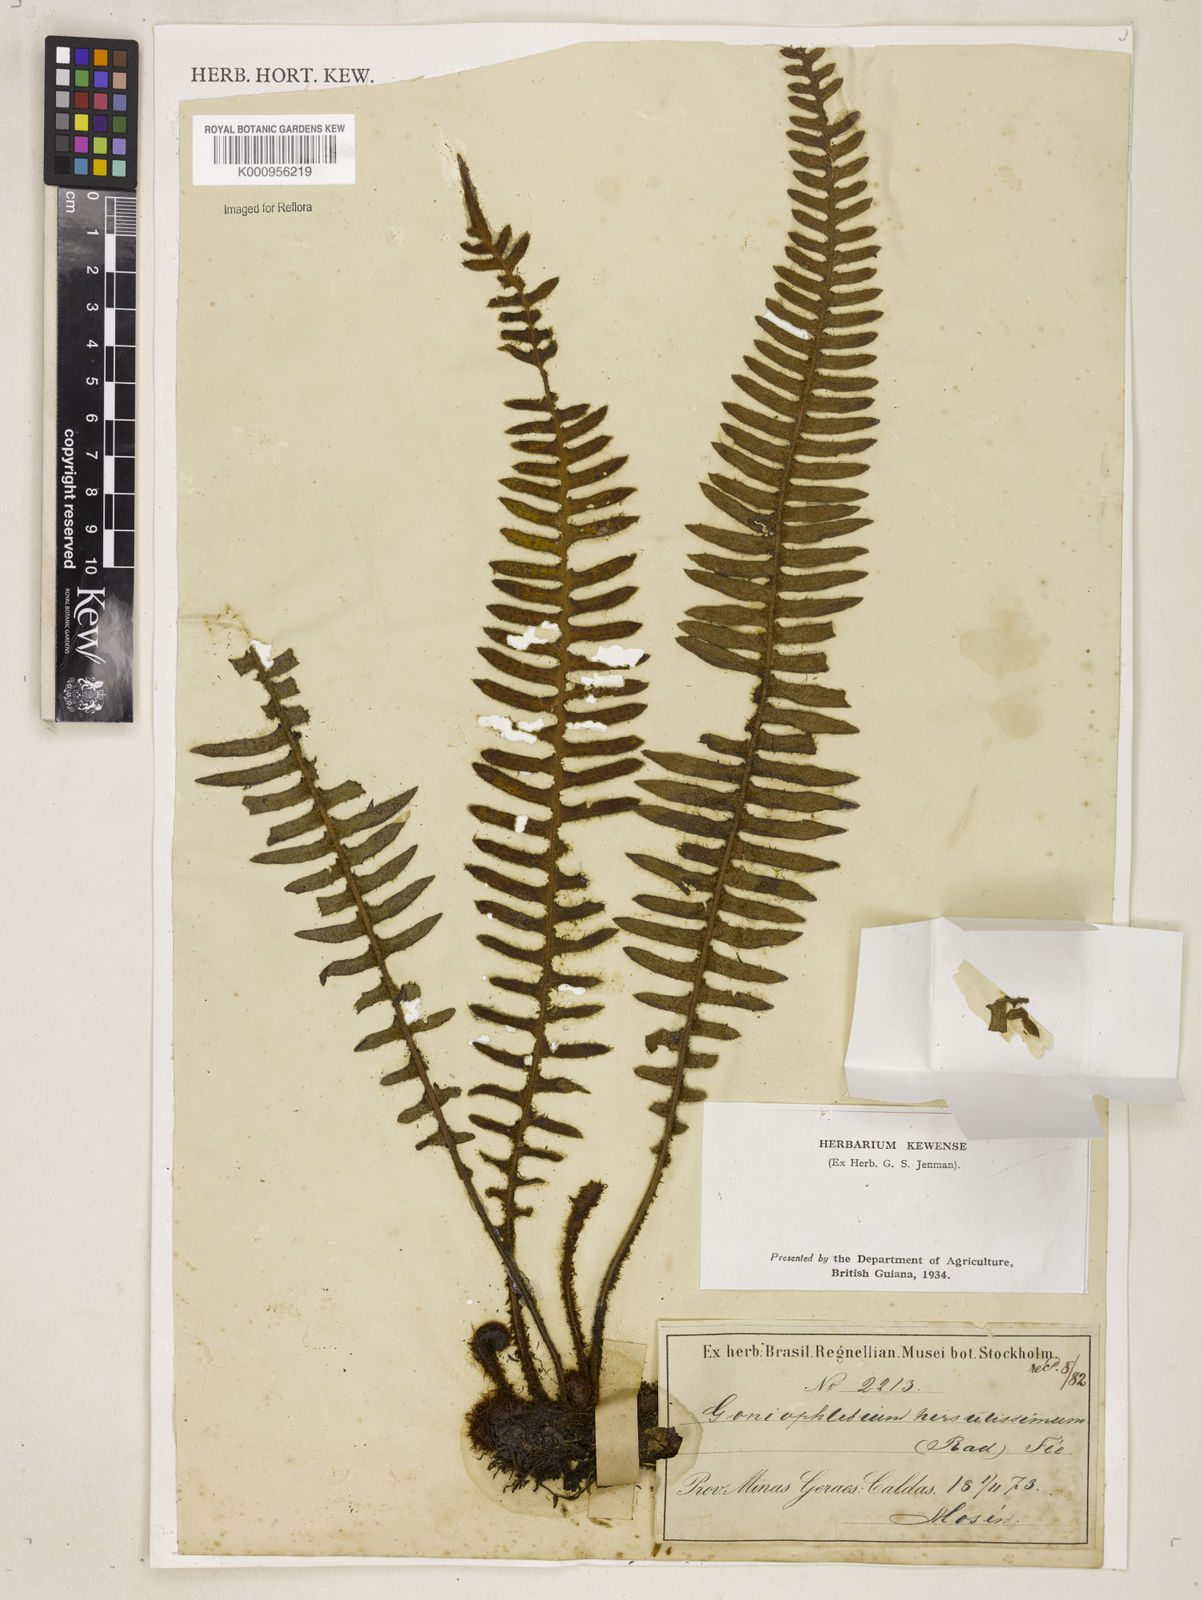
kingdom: Plantae
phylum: Tracheophyta
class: Polypodiopsida
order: Polypodiales
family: Polypodiaceae
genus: Pleopeltis
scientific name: Pleopeltis hirsutissima
